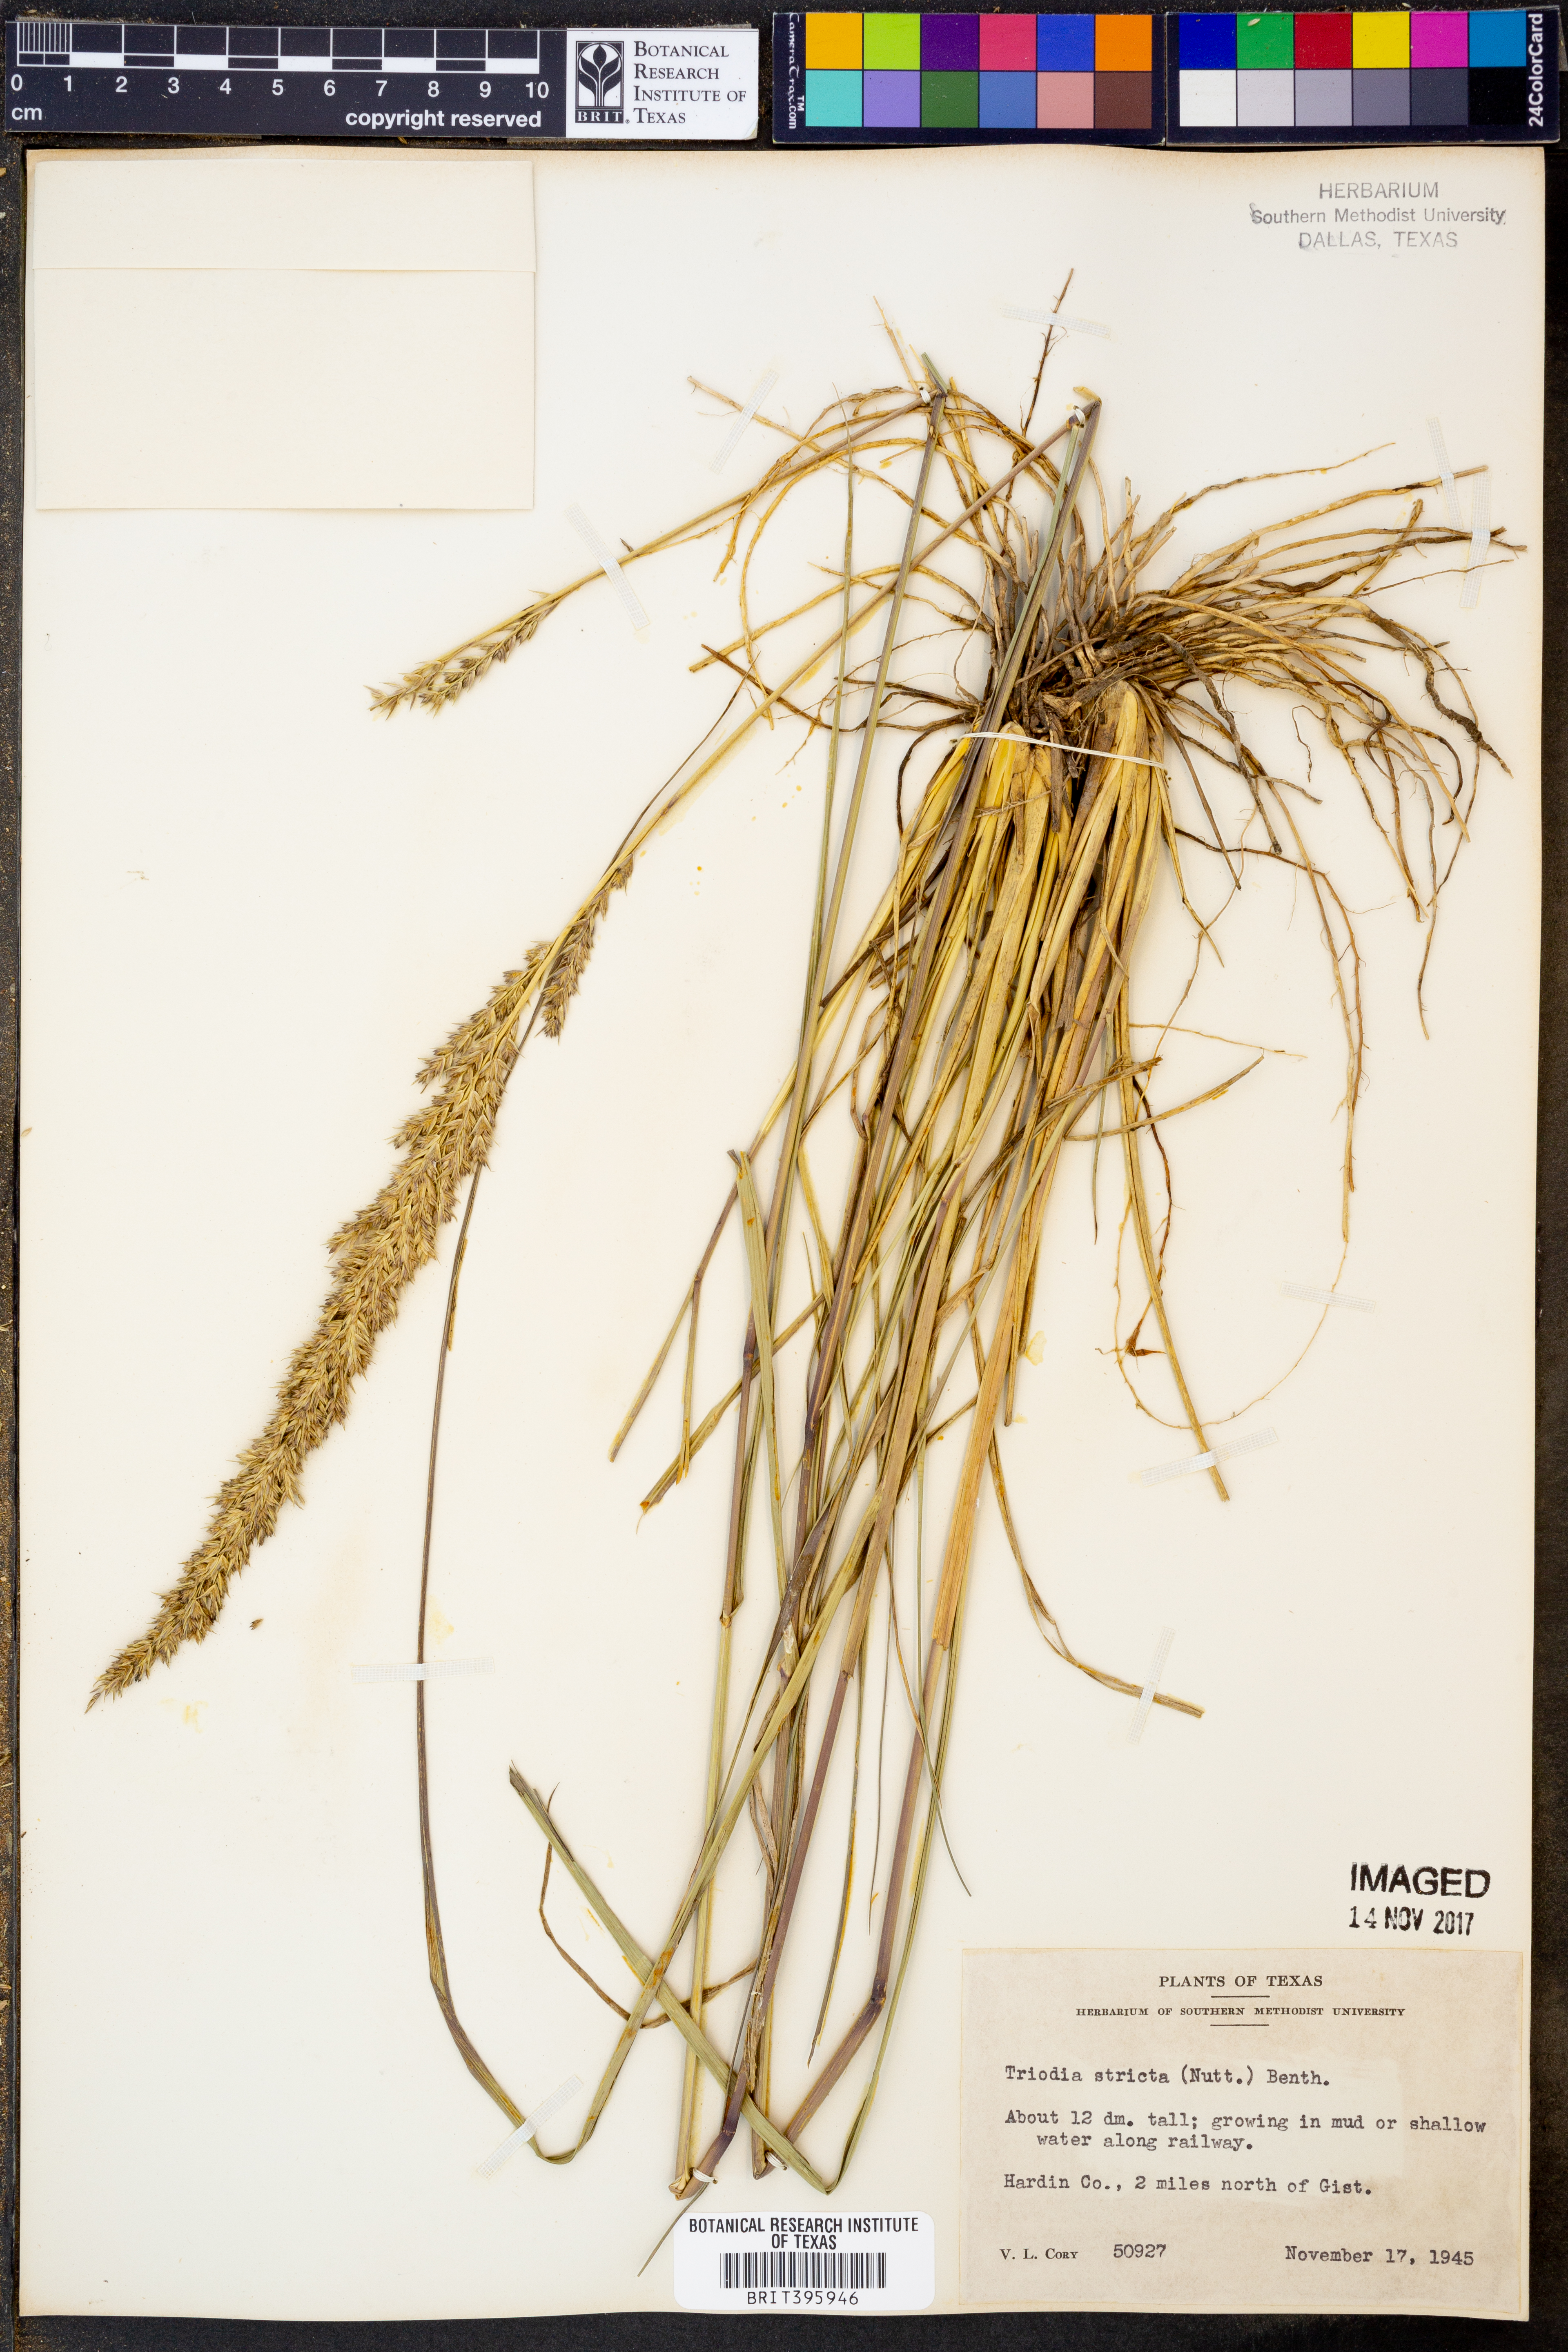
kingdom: Plantae
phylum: Tracheophyta
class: Liliopsida
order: Poales
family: Poaceae
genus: Tridens
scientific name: Tridens strictus
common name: Long-spike tridens
